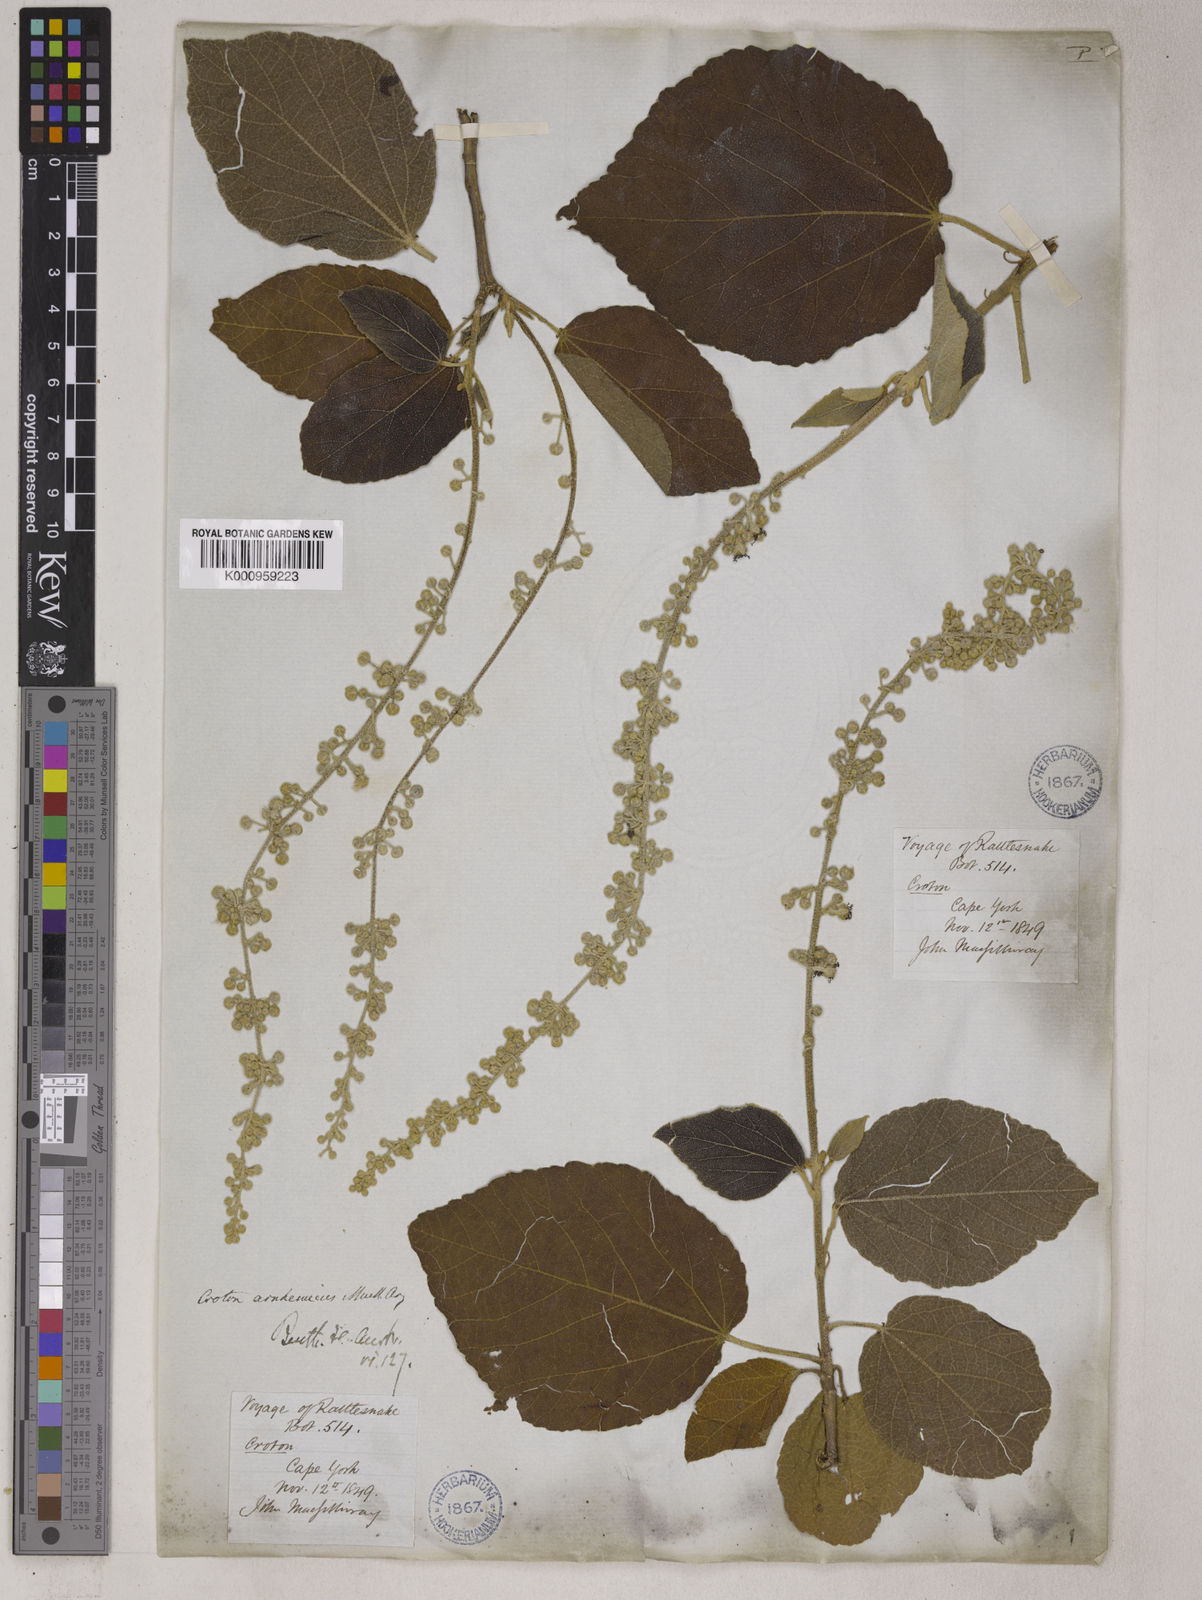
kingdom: Plantae
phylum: Tracheophyta
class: Magnoliopsida
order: Malpighiales
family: Euphorbiaceae
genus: Croton
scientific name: Croton
